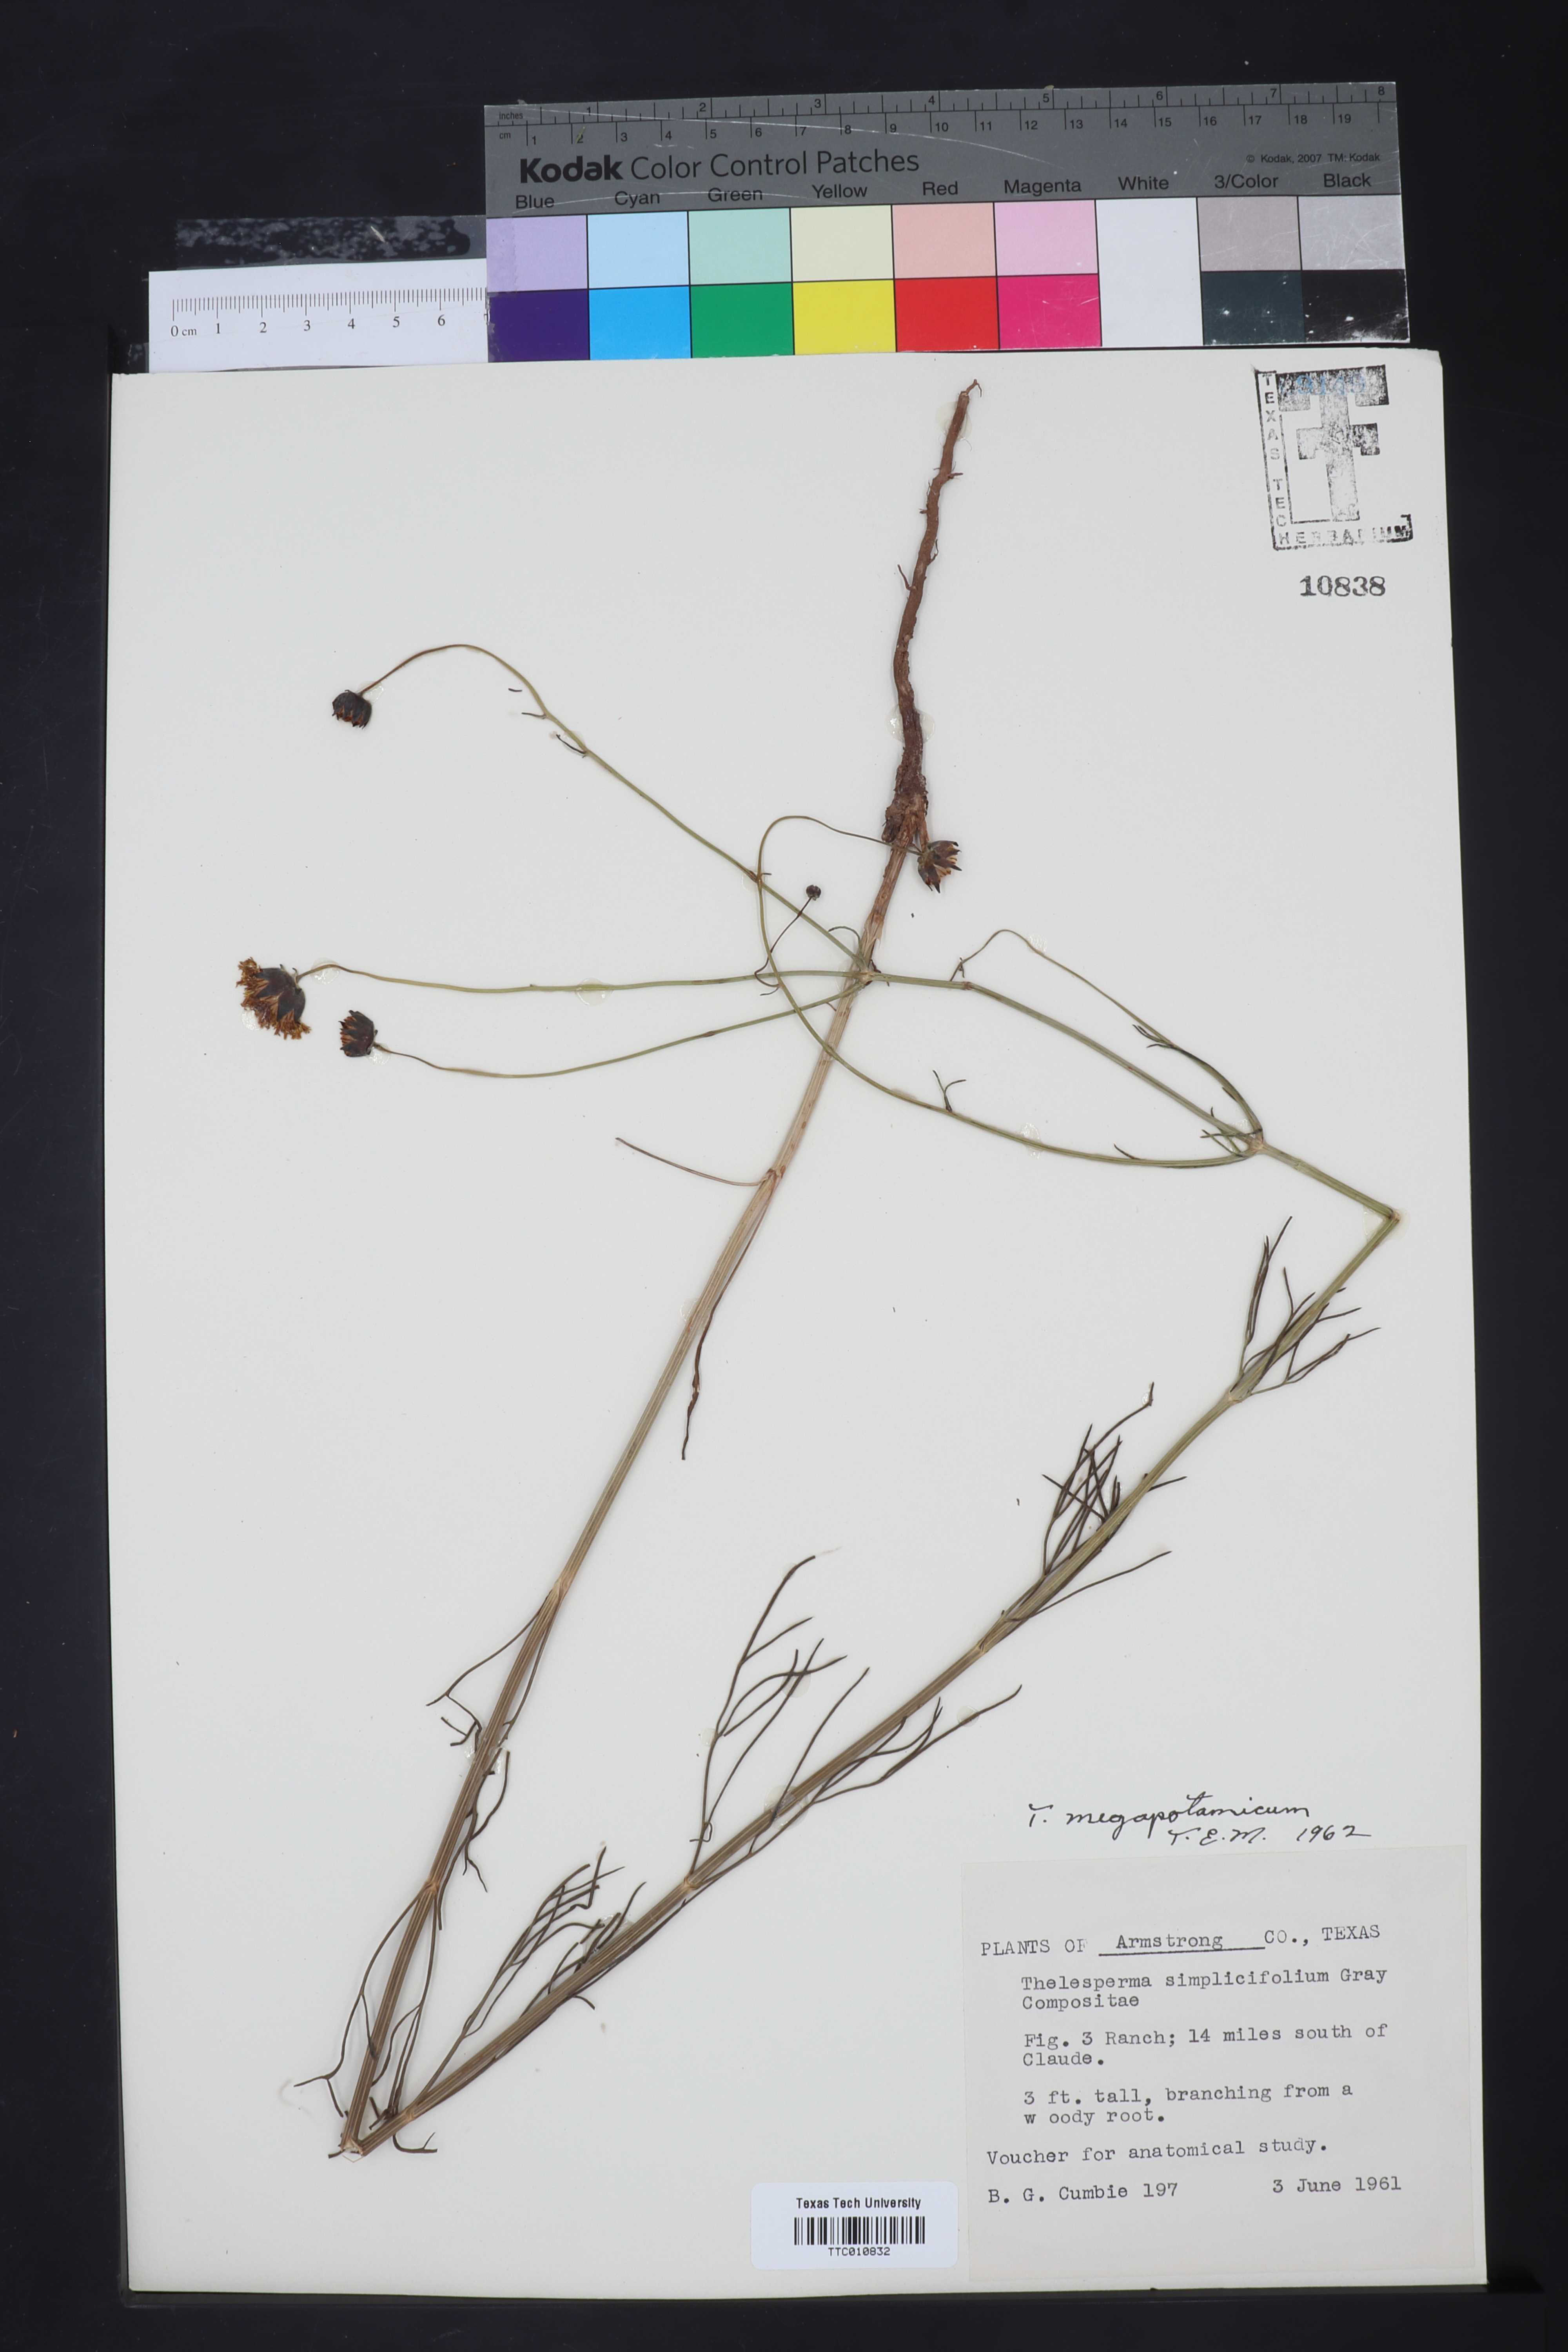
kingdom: Plantae
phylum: Tracheophyta
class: Magnoliopsida
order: Asterales
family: Asteraceae
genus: Thelesperma
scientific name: Thelesperma megapotamicum
